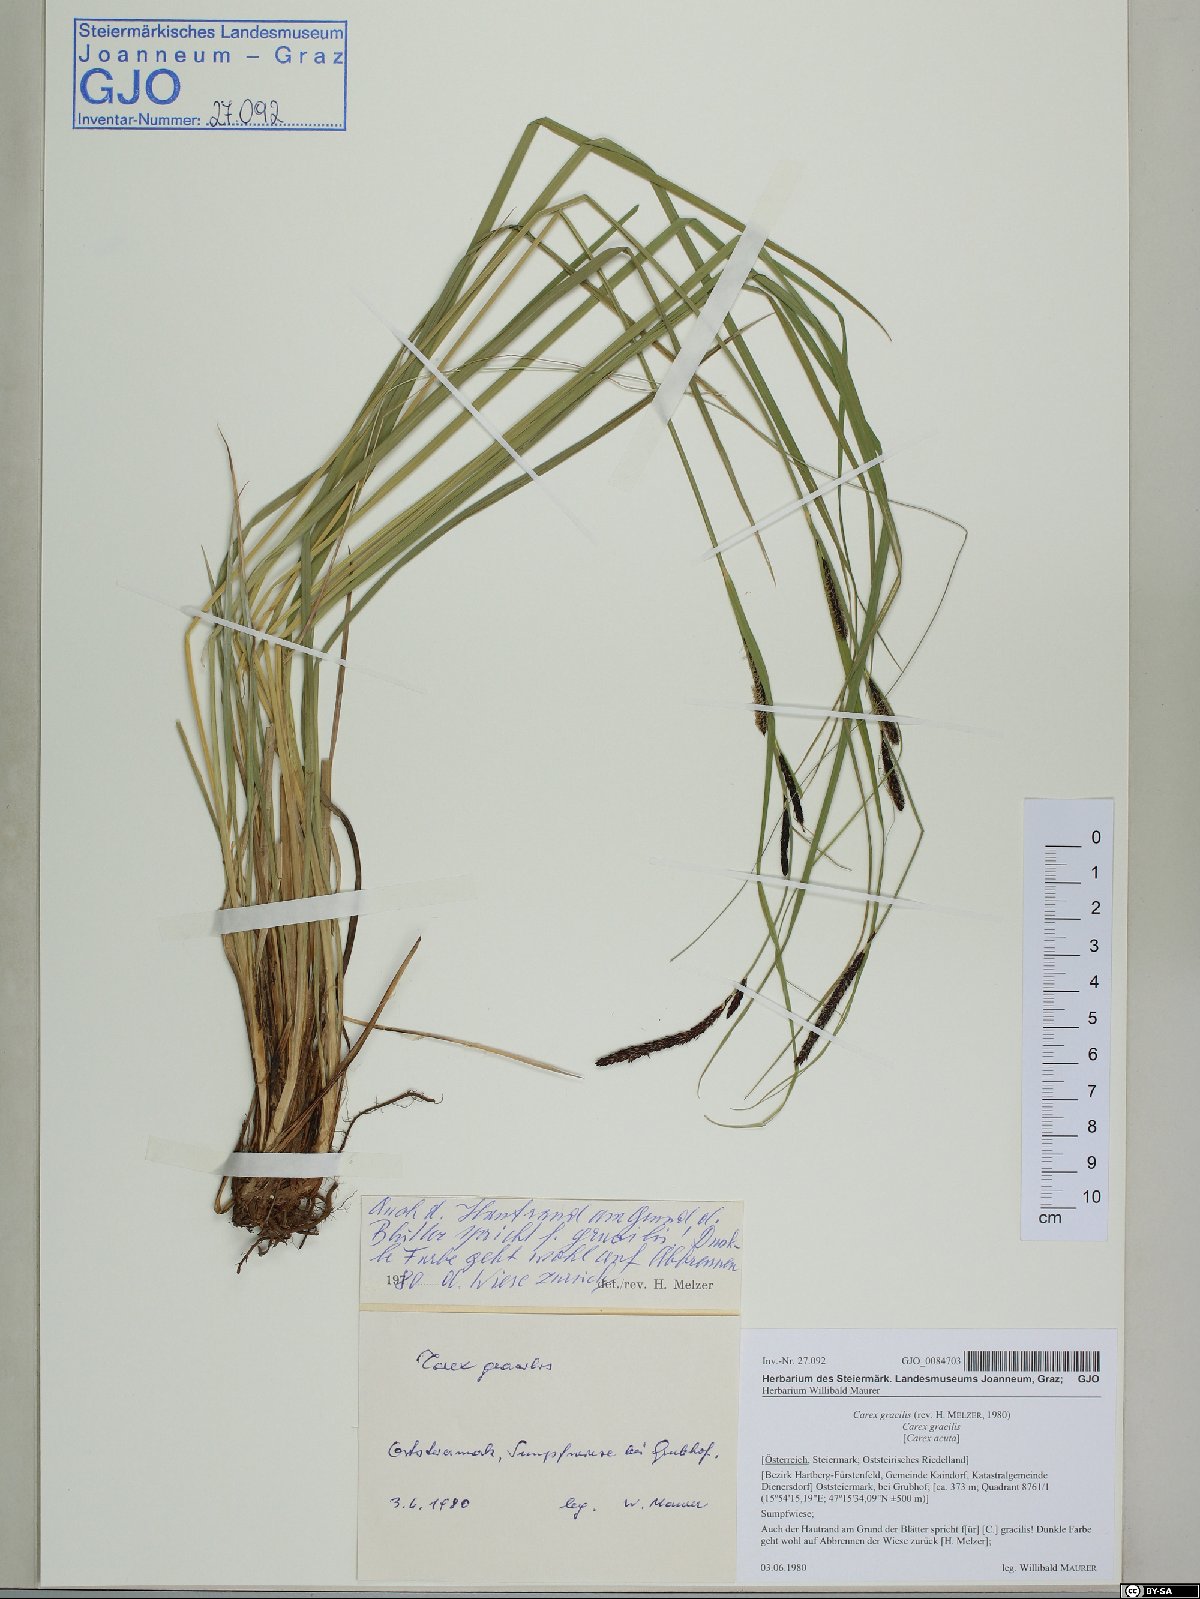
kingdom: Plantae
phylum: Tracheophyta
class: Liliopsida
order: Poales
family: Cyperaceae
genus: Carex
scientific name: Carex acuta
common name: Slender tufted-sedge
